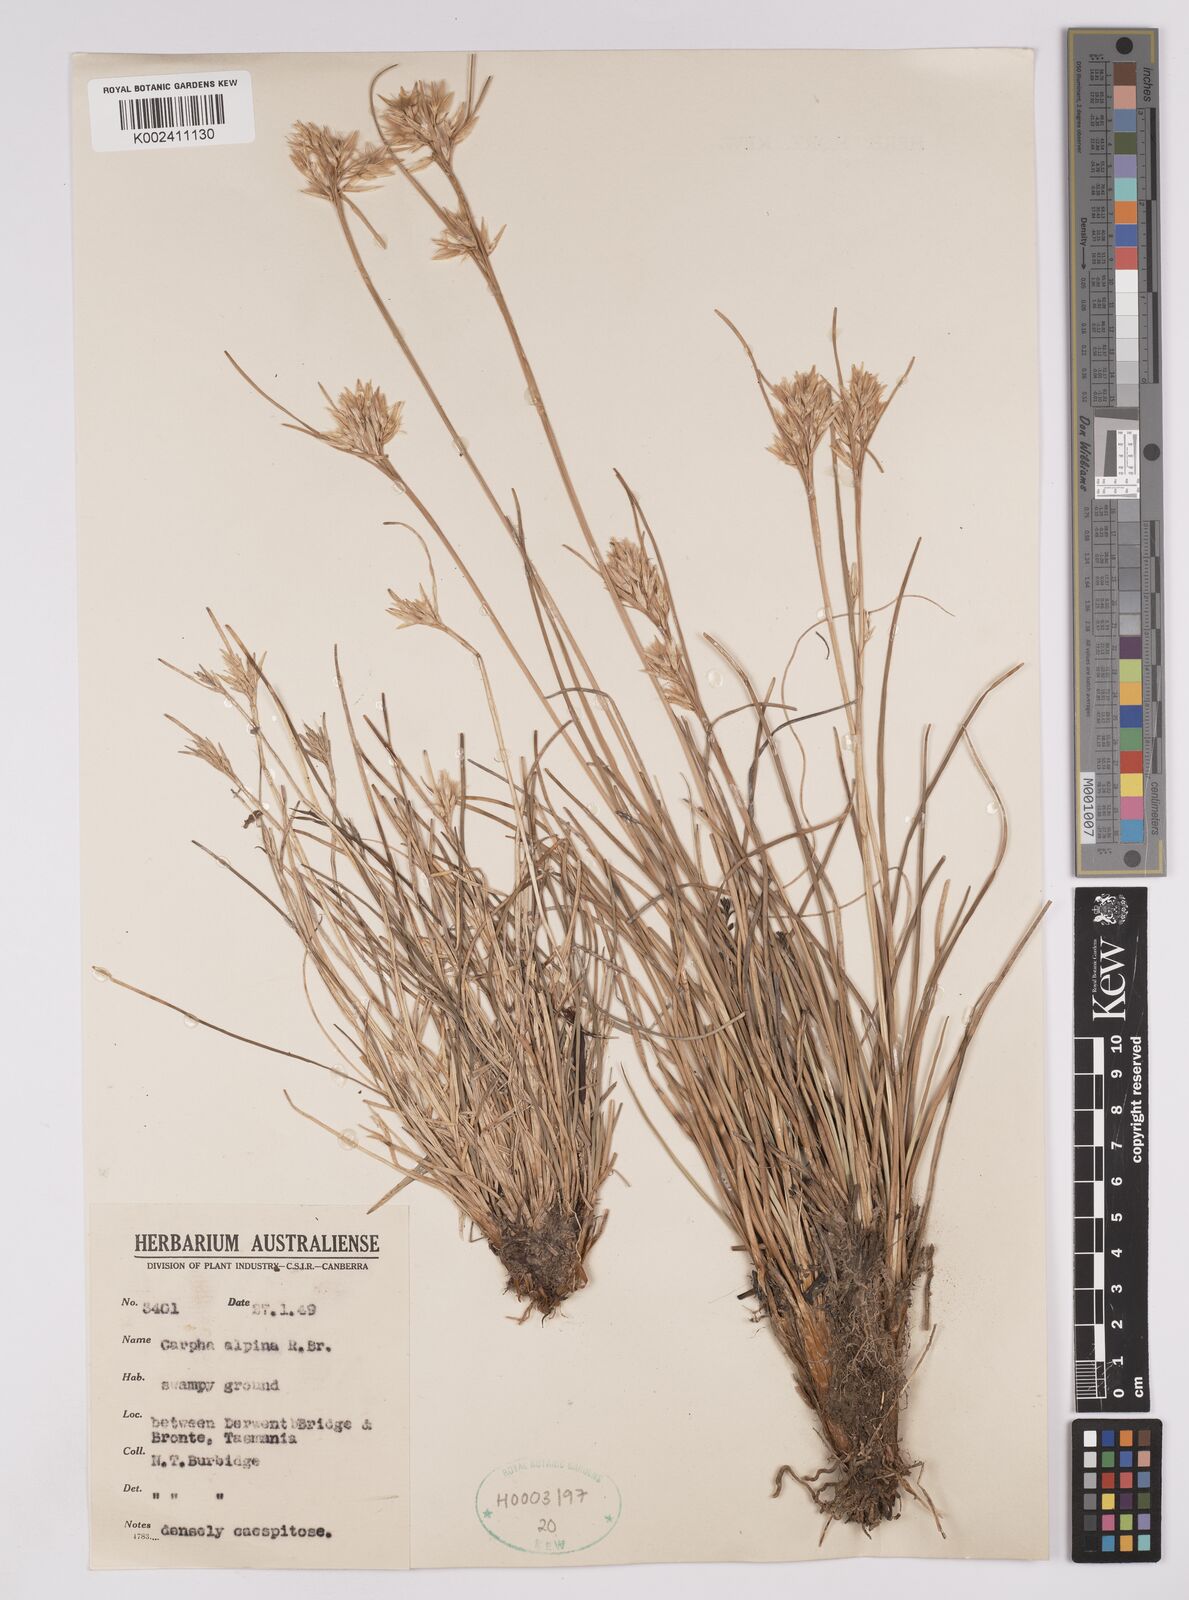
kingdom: Plantae
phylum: Tracheophyta
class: Liliopsida
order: Poales
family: Cyperaceae
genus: Carpha
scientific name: Carpha alpina
